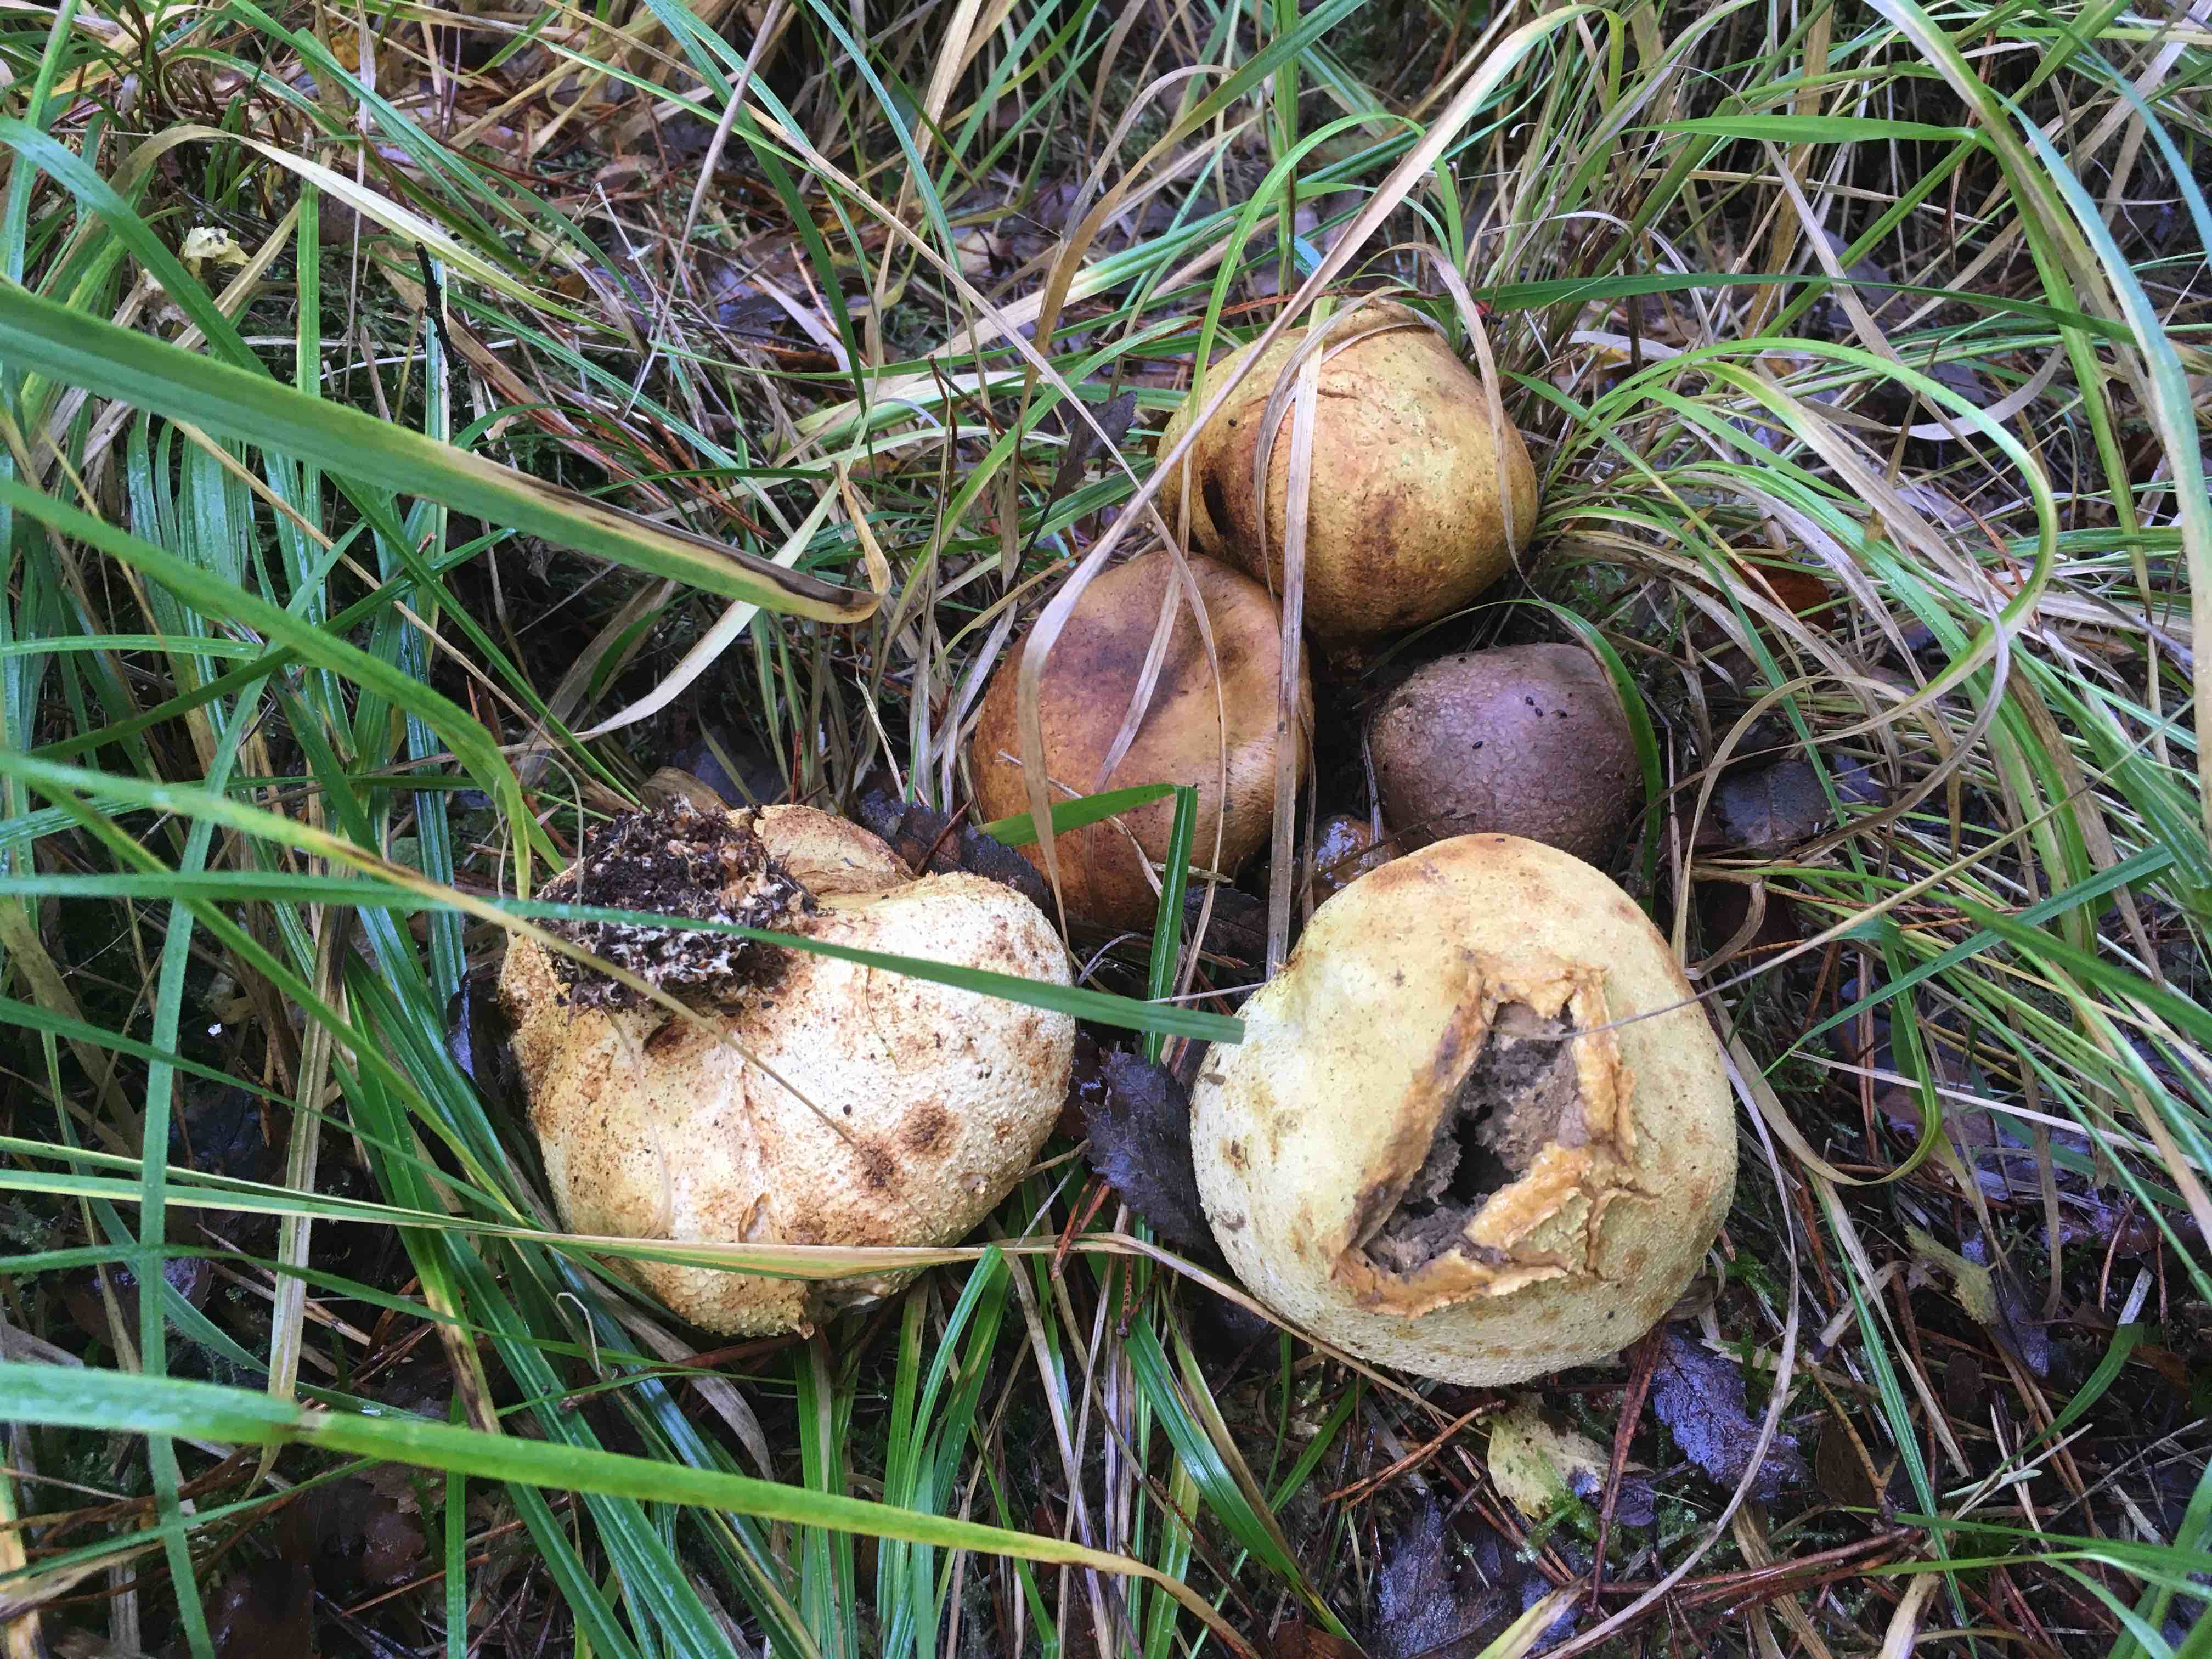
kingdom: Fungi
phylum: Basidiomycota
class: Agaricomycetes
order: Boletales
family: Sclerodermataceae
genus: Scleroderma
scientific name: Scleroderma citrinum
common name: almindelig bruskbold
